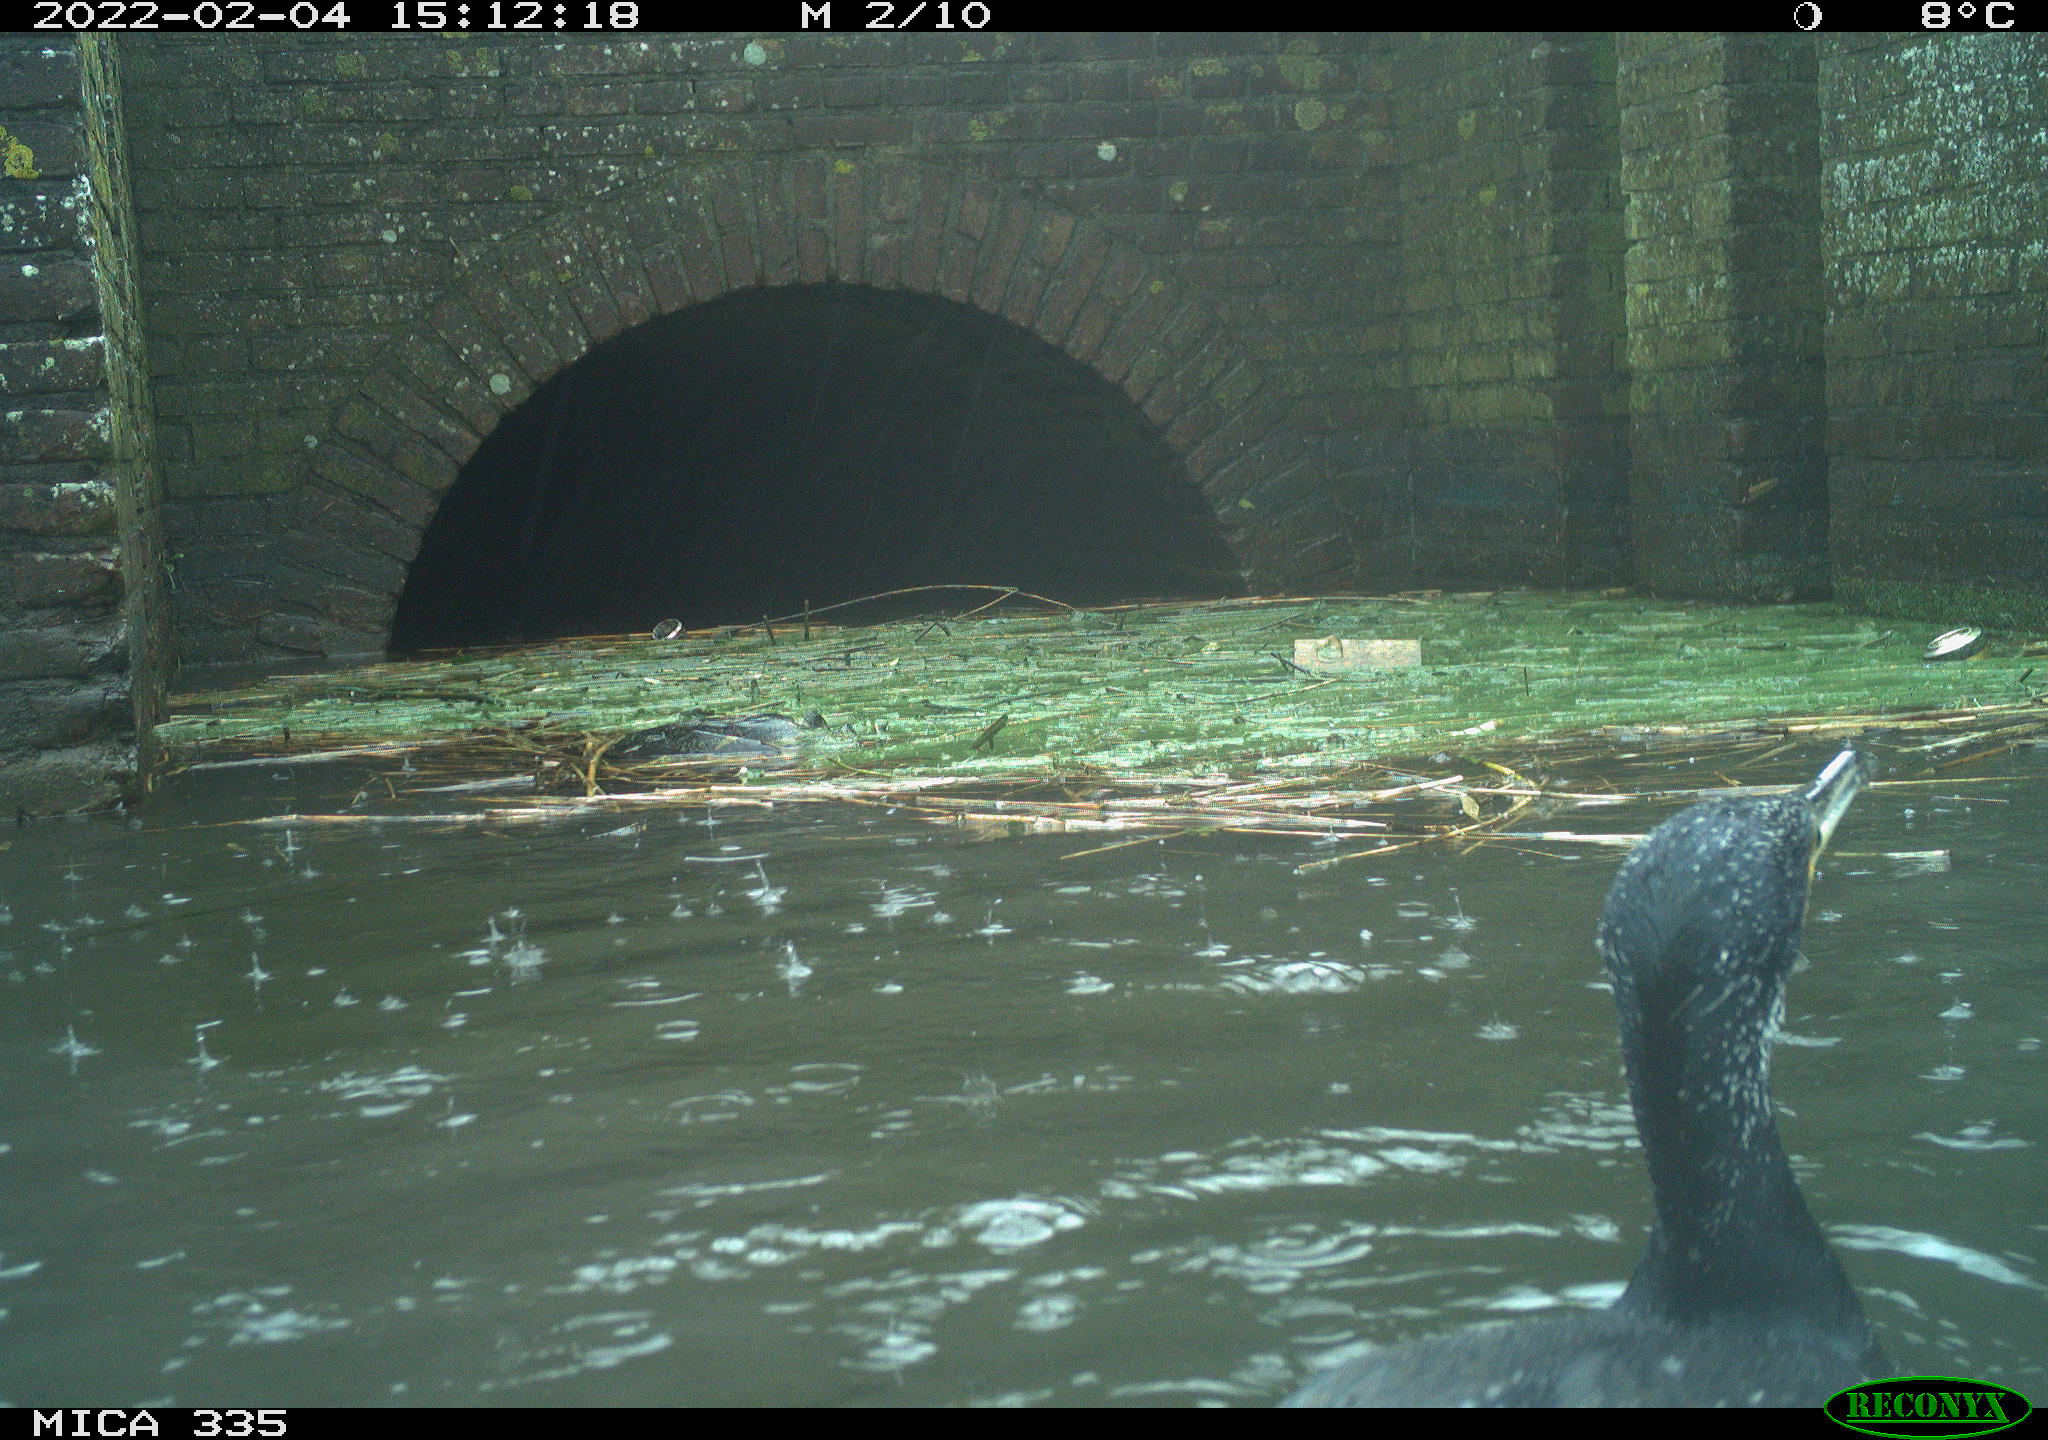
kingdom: Animalia
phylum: Chordata
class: Aves
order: Suliformes
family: Phalacrocoracidae
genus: Phalacrocorax
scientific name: Phalacrocorax carbo
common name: Great cormorant
